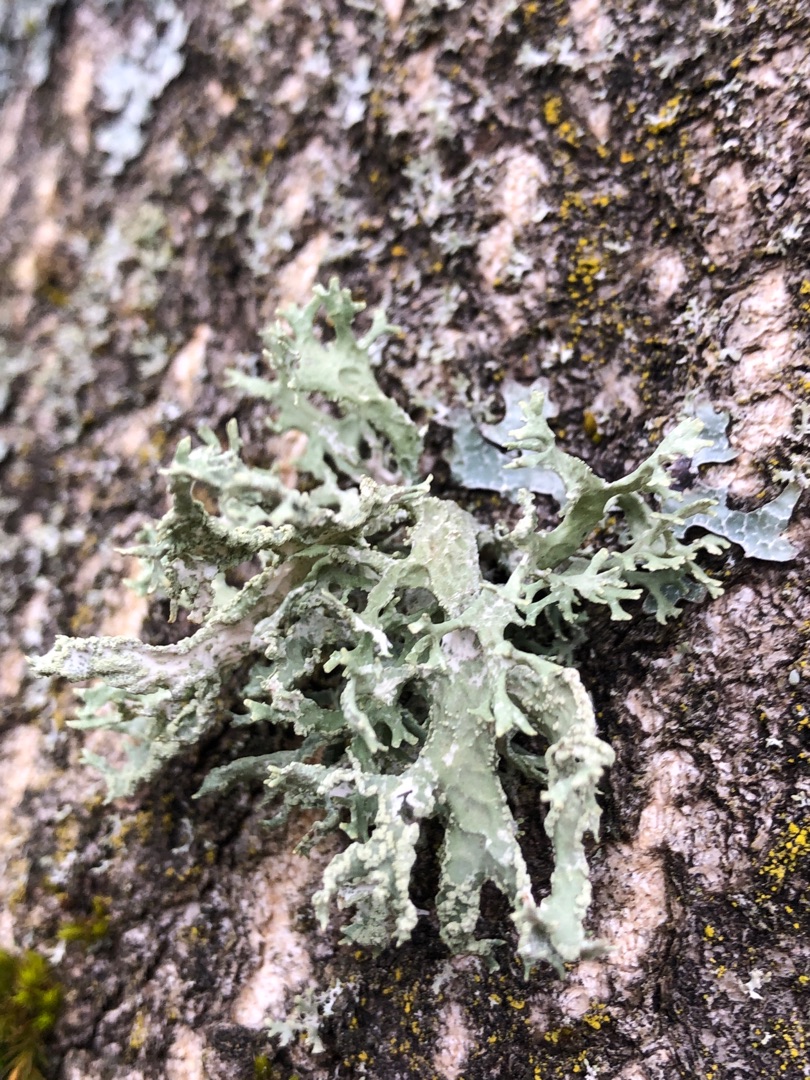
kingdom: Fungi
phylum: Ascomycota
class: Lecanoromycetes
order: Lecanorales
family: Parmeliaceae
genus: Evernia
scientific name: Evernia prunastri
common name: Almindelig slåenlav
